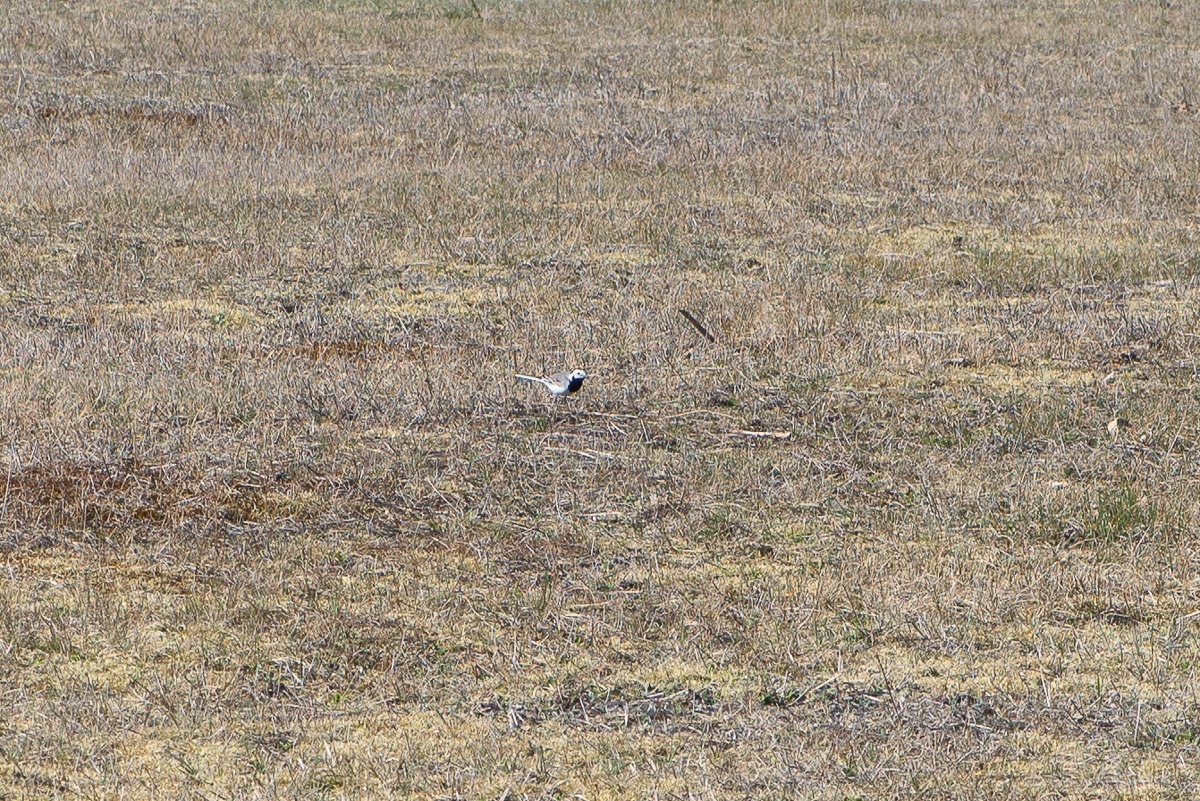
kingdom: Animalia
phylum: Chordata
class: Aves
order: Passeriformes
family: Motacillidae
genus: Motacilla
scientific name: Motacilla alba
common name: Hvid vipstjert
